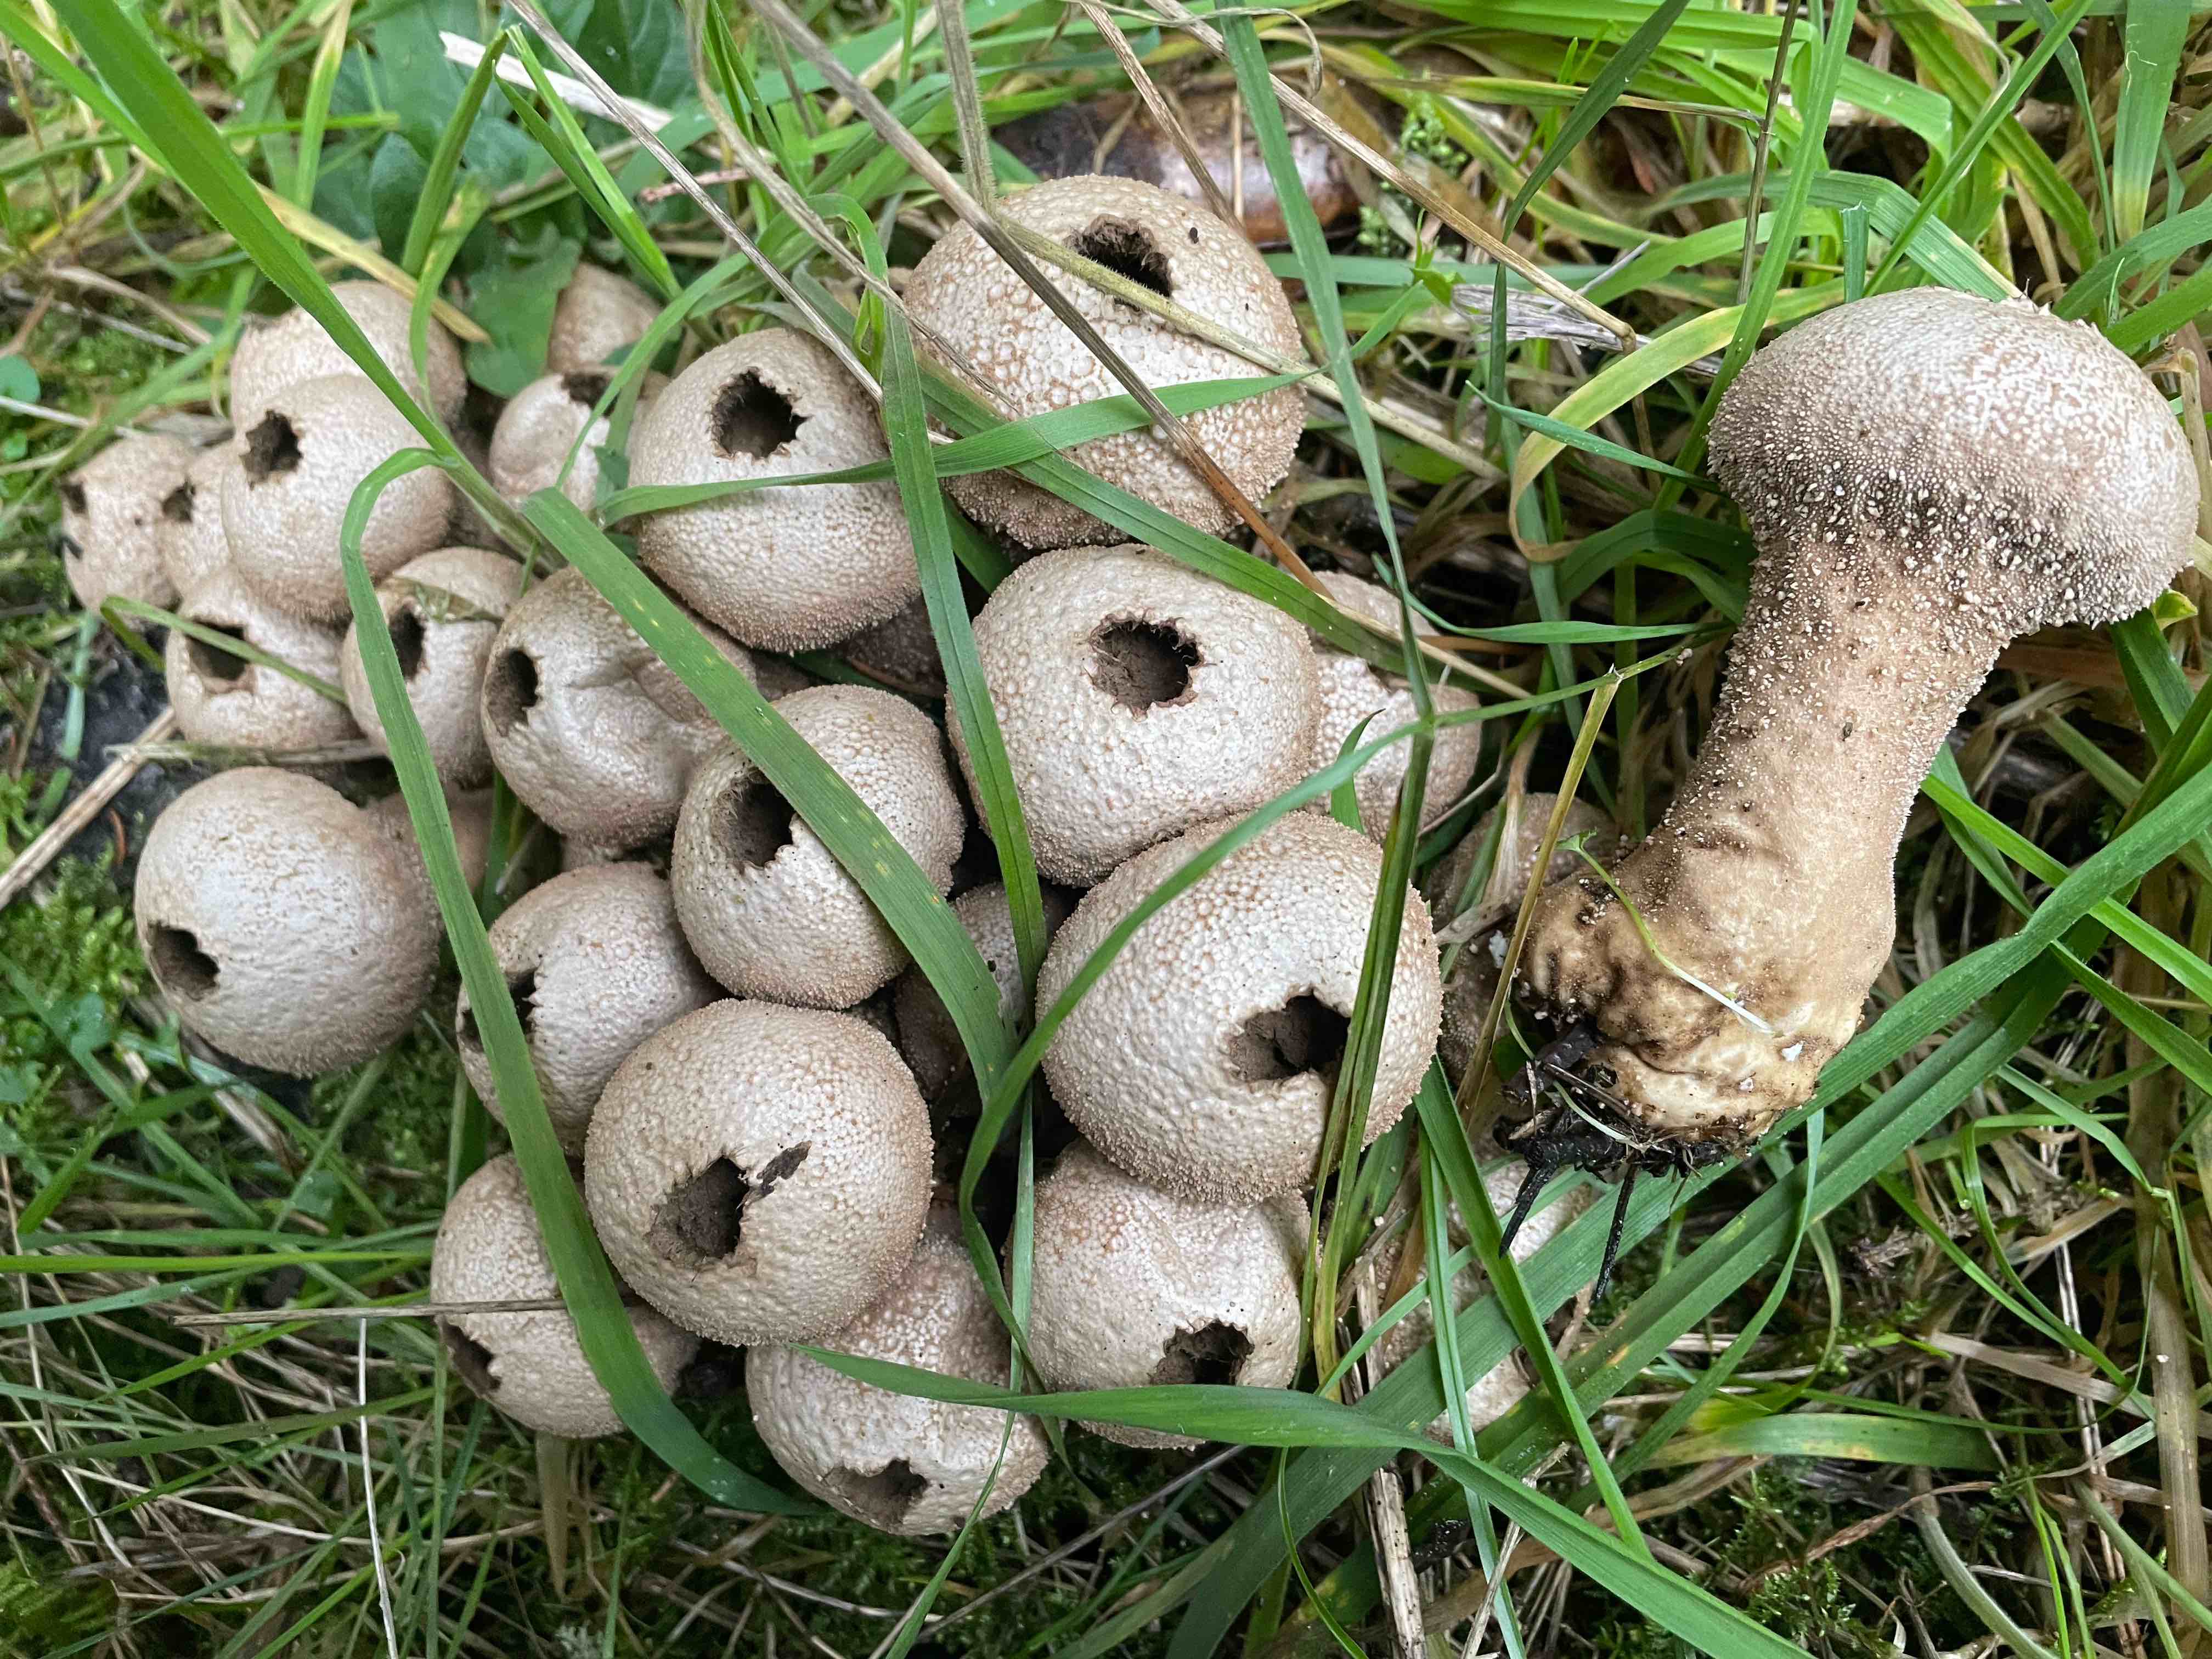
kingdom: Fungi
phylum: Basidiomycota
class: Agaricomycetes
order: Agaricales
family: Lycoperdaceae
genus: Lycoperdon
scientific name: Lycoperdon perlatum
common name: krystal-støvbold
